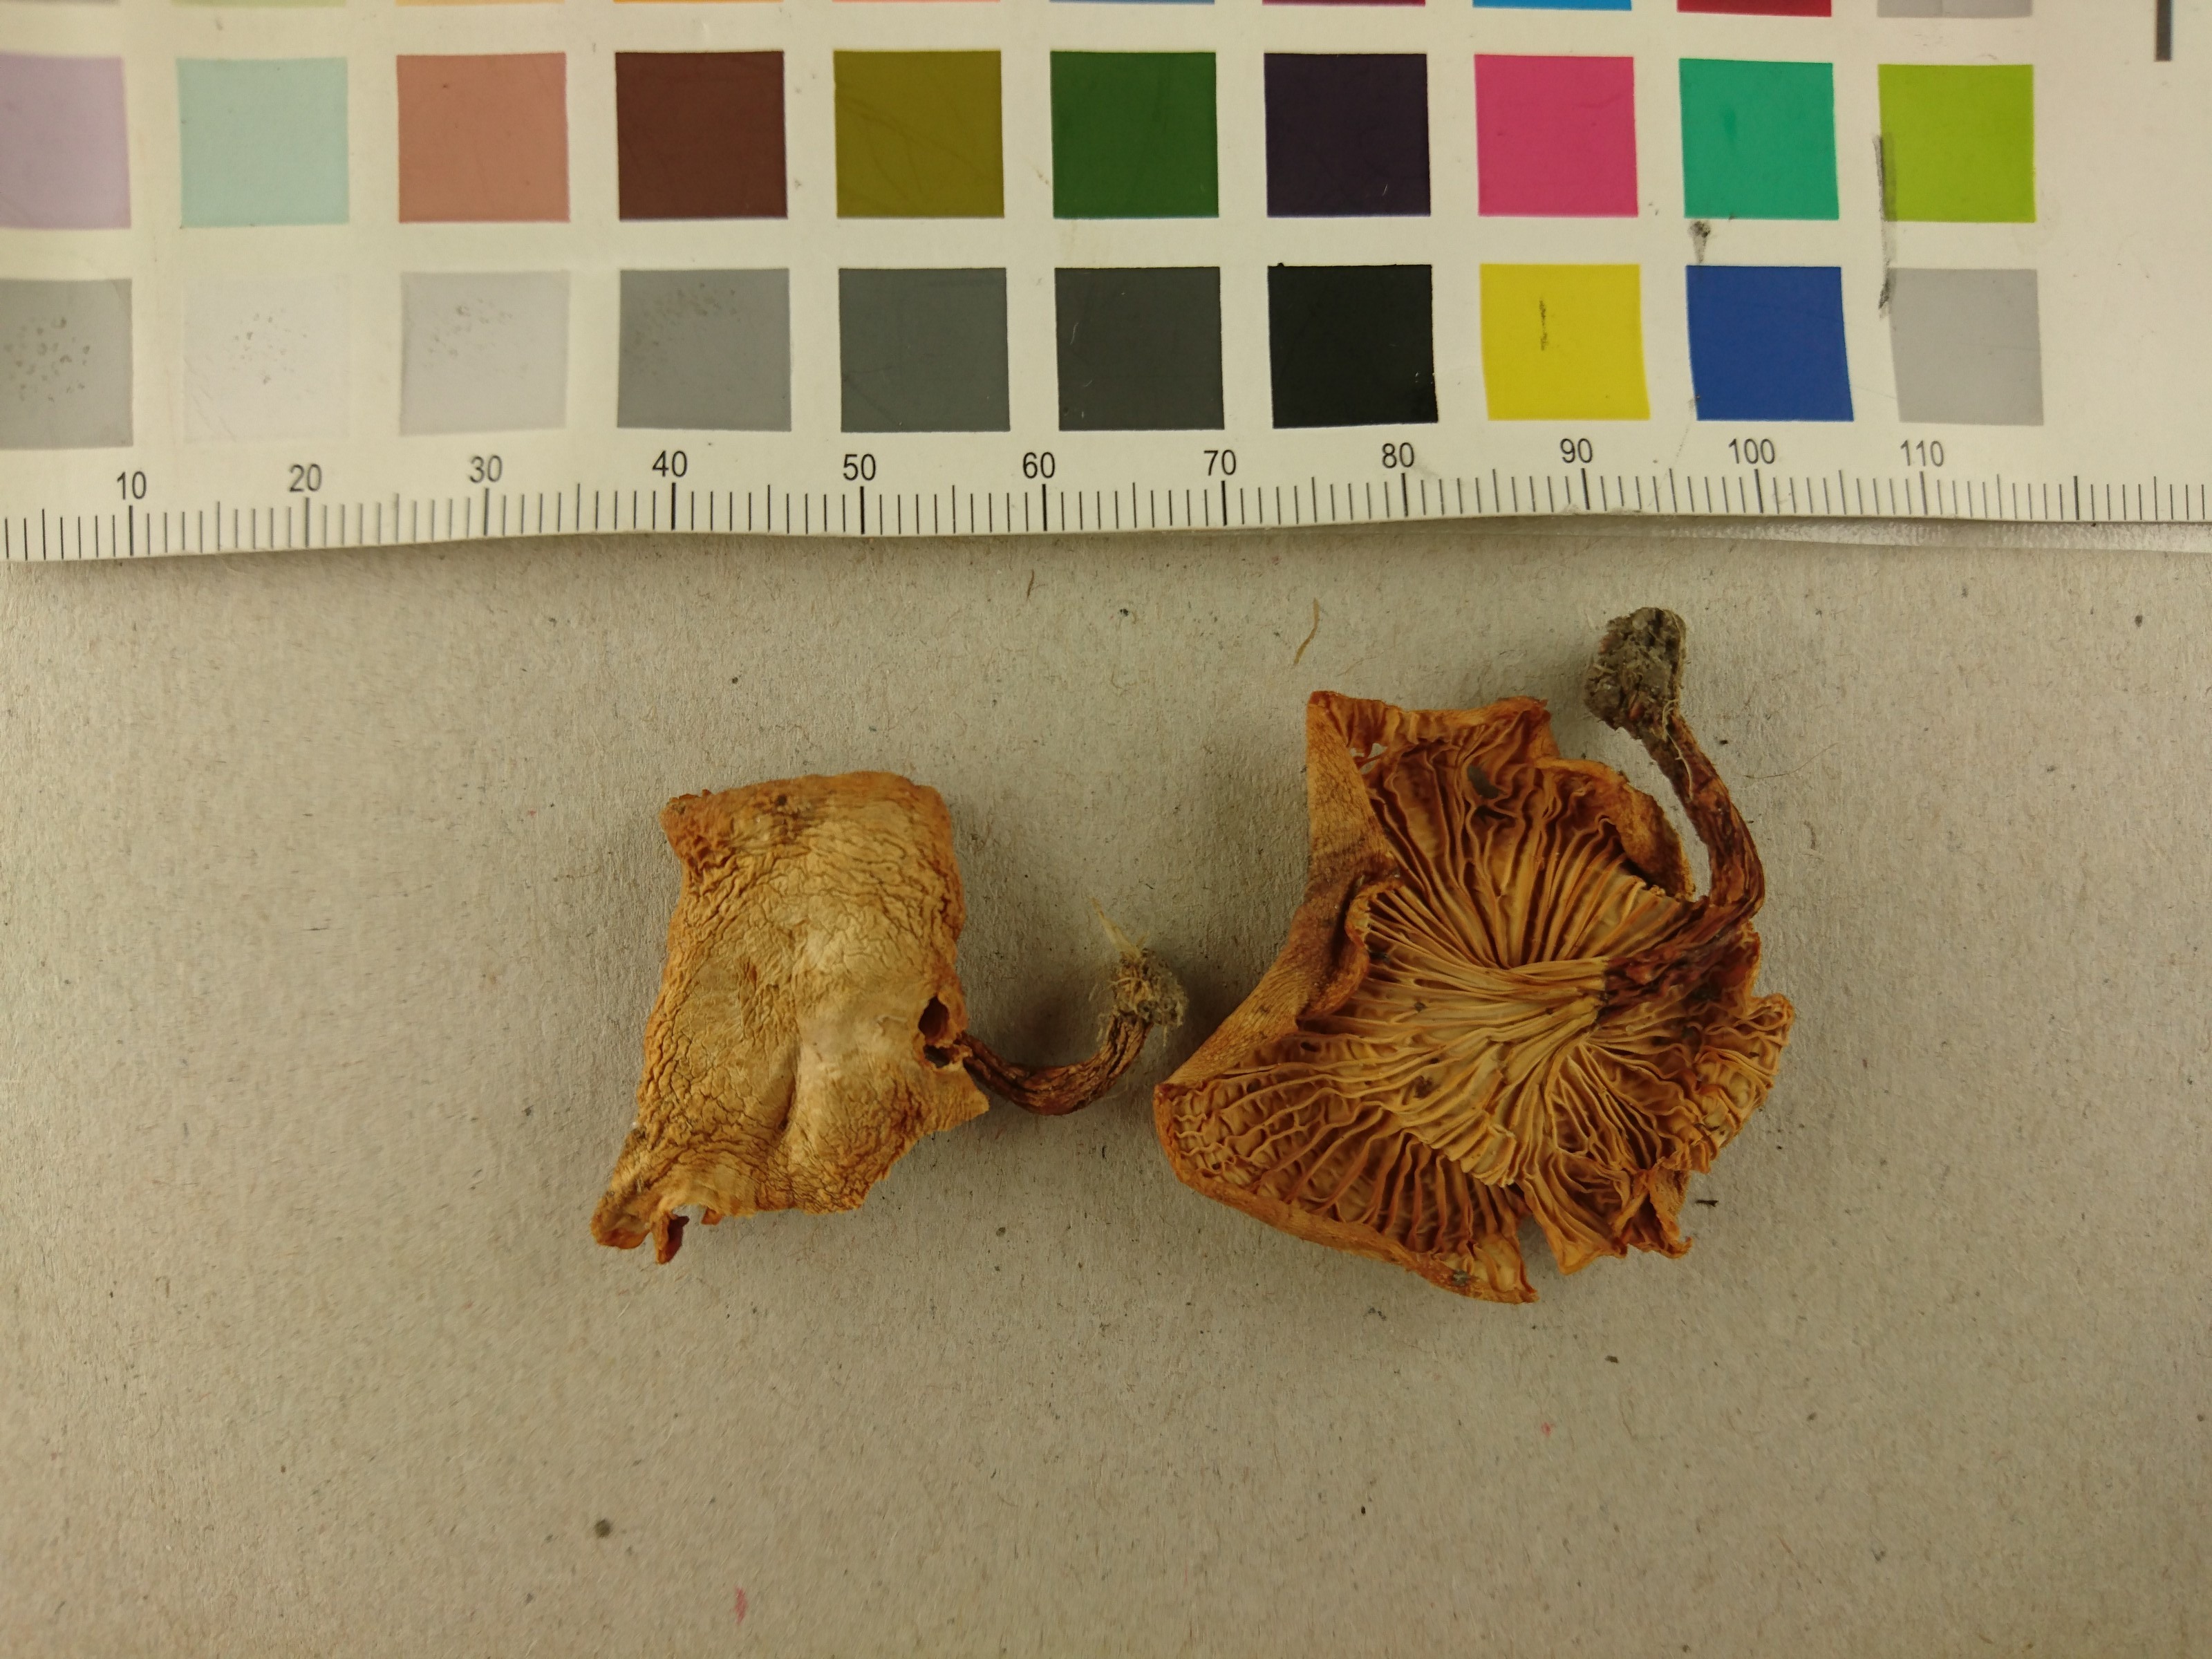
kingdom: Fungi
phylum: Basidiomycota
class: Agaricomycetes
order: Cantharellales
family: Hydnaceae
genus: Cantharellus
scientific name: Cantharellus
